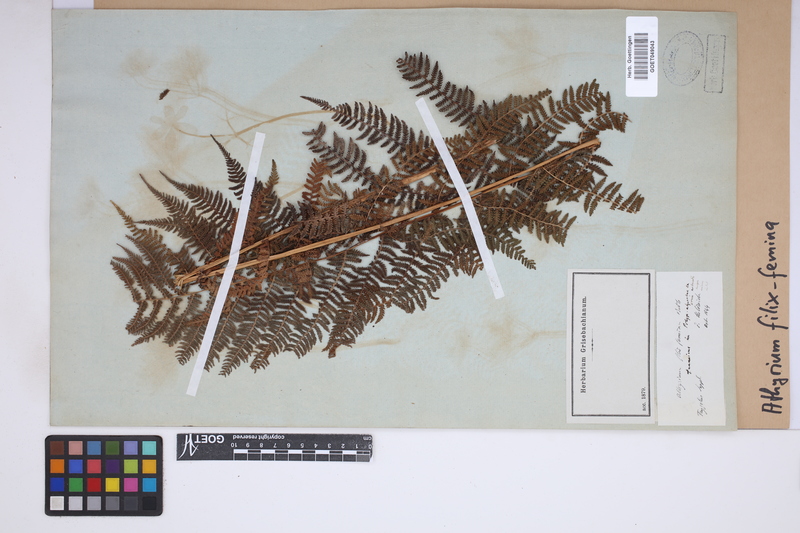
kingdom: Plantae
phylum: Tracheophyta
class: Polypodiopsida
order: Polypodiales
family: Athyriaceae
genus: Athyrium
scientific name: Athyrium filix-femina
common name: Lady fern
